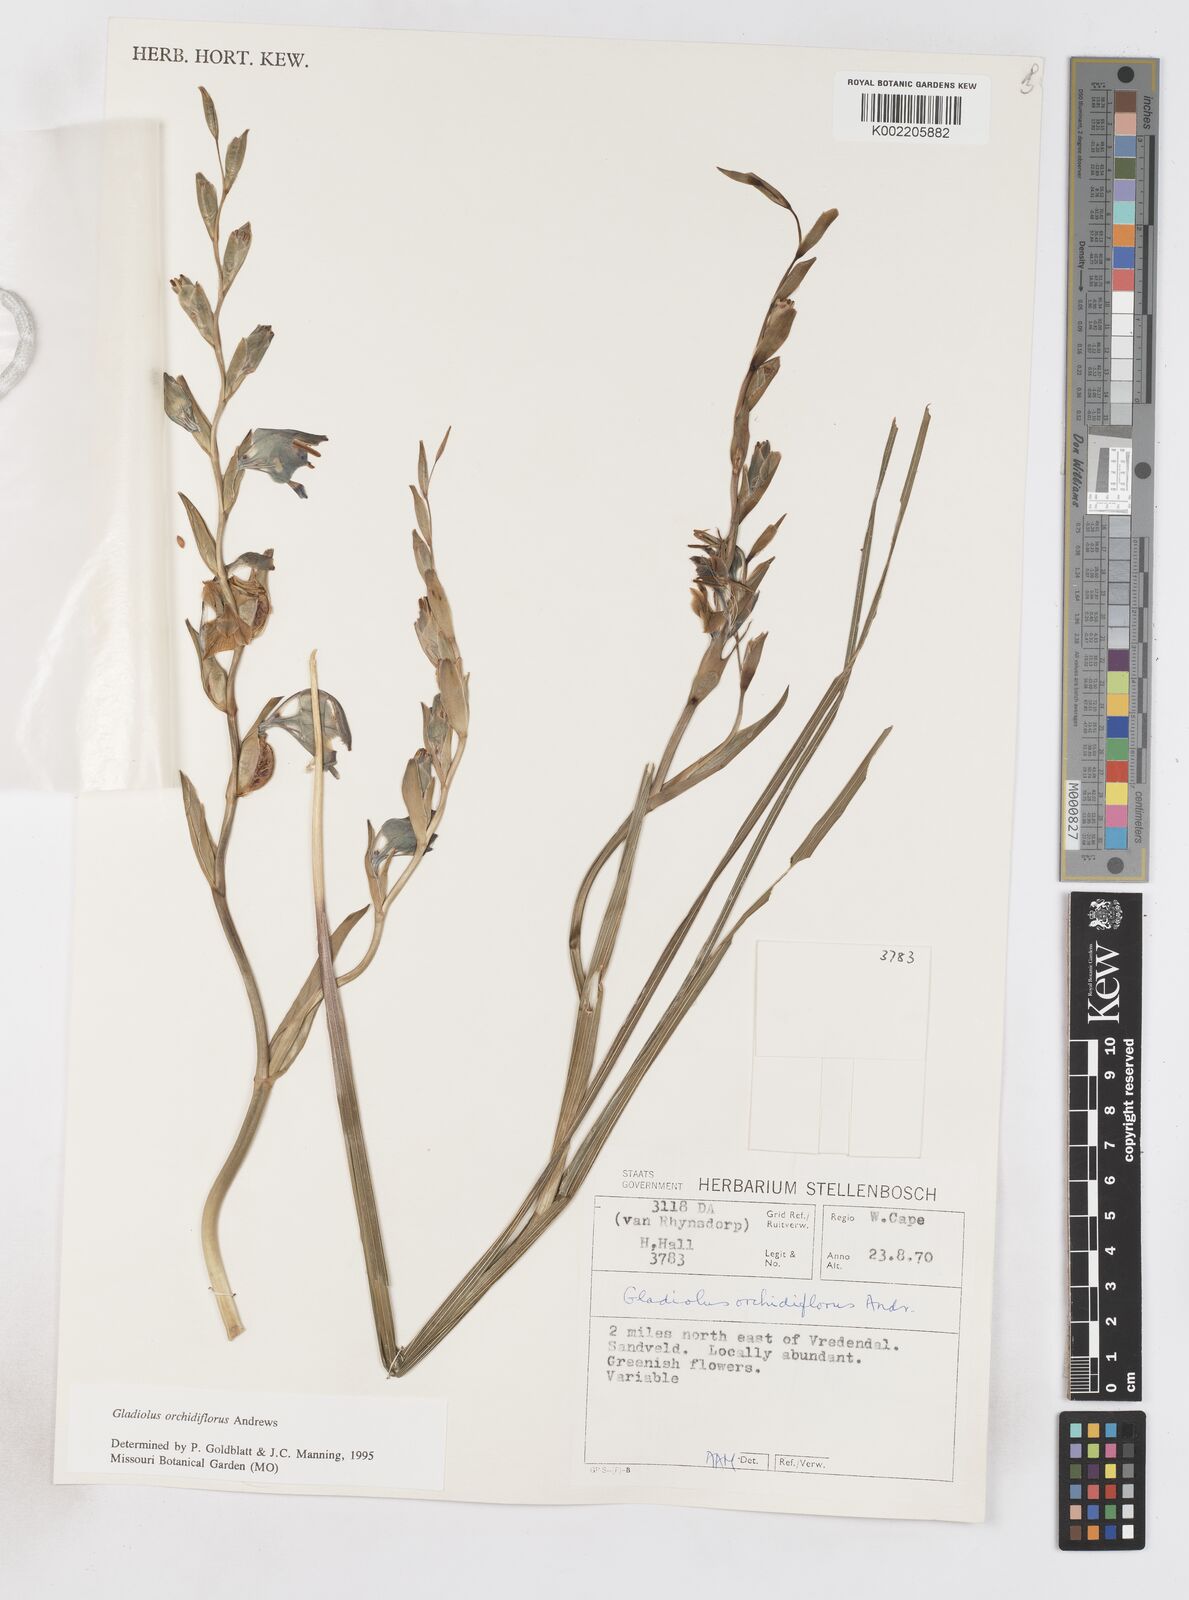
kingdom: Plantae
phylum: Tracheophyta
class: Liliopsida
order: Asparagales
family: Iridaceae
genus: Gladiolus
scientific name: Gladiolus orchidiflorus
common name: Gray kalkoentjie
